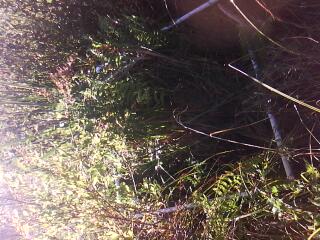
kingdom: Plantae
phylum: Tracheophyta
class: Liliopsida
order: Poales
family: Poaceae
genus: Leersia
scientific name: Leersia oryzoides
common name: Cut-grass
